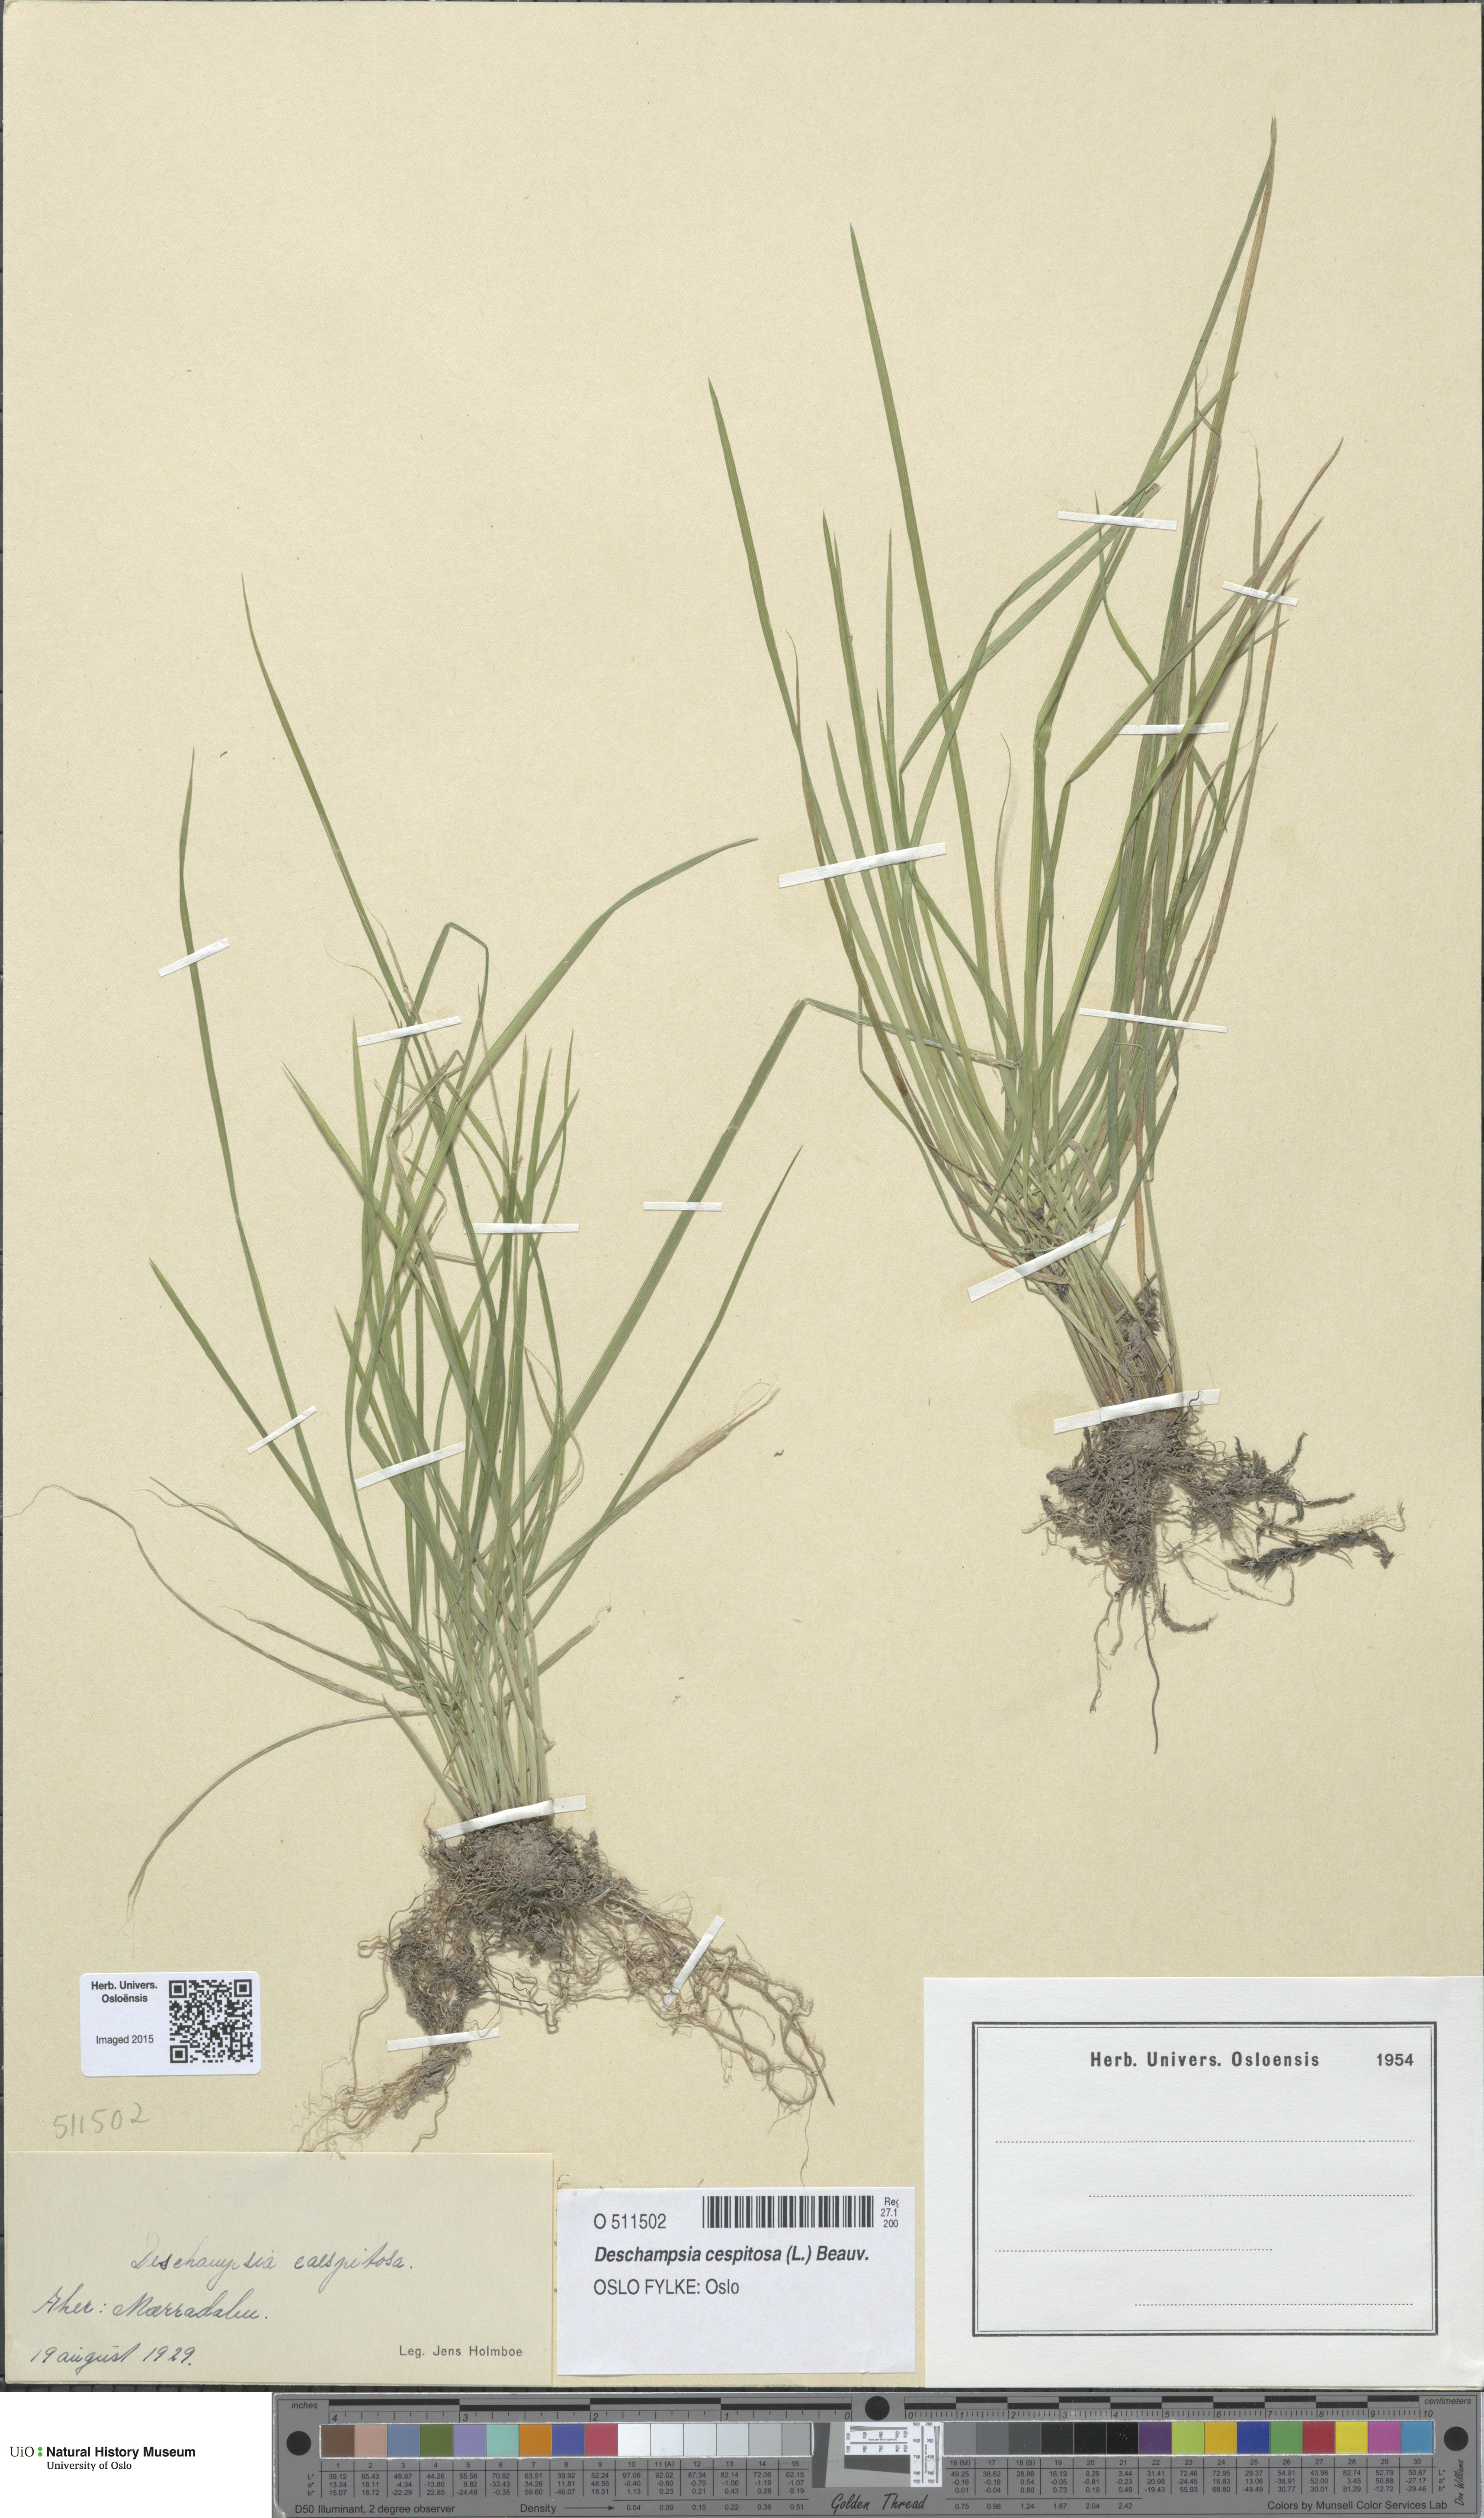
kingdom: Plantae
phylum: Tracheophyta
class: Liliopsida
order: Poales
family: Poaceae
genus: Deschampsia
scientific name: Deschampsia cespitosa
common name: Tufted hair-grass
